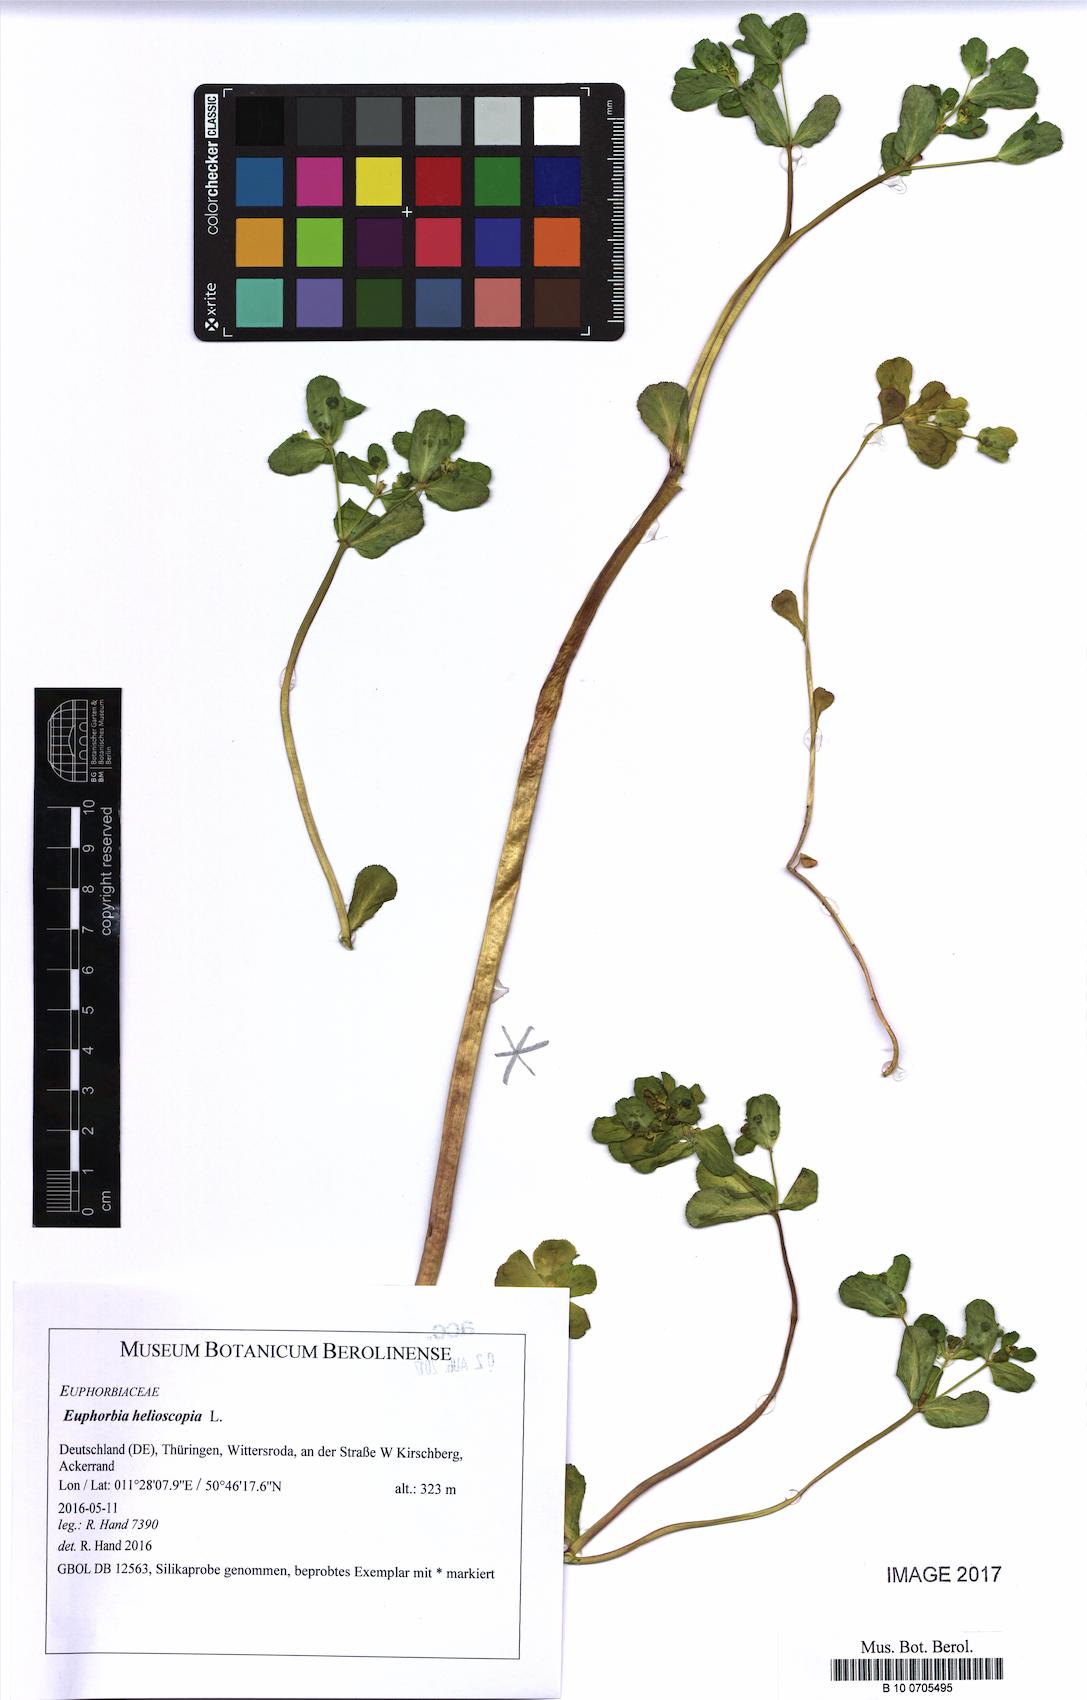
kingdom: Plantae
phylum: Tracheophyta
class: Magnoliopsida
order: Malpighiales
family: Euphorbiaceae
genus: Euphorbia
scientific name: Euphorbia helioscopia
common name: Sun spurge
